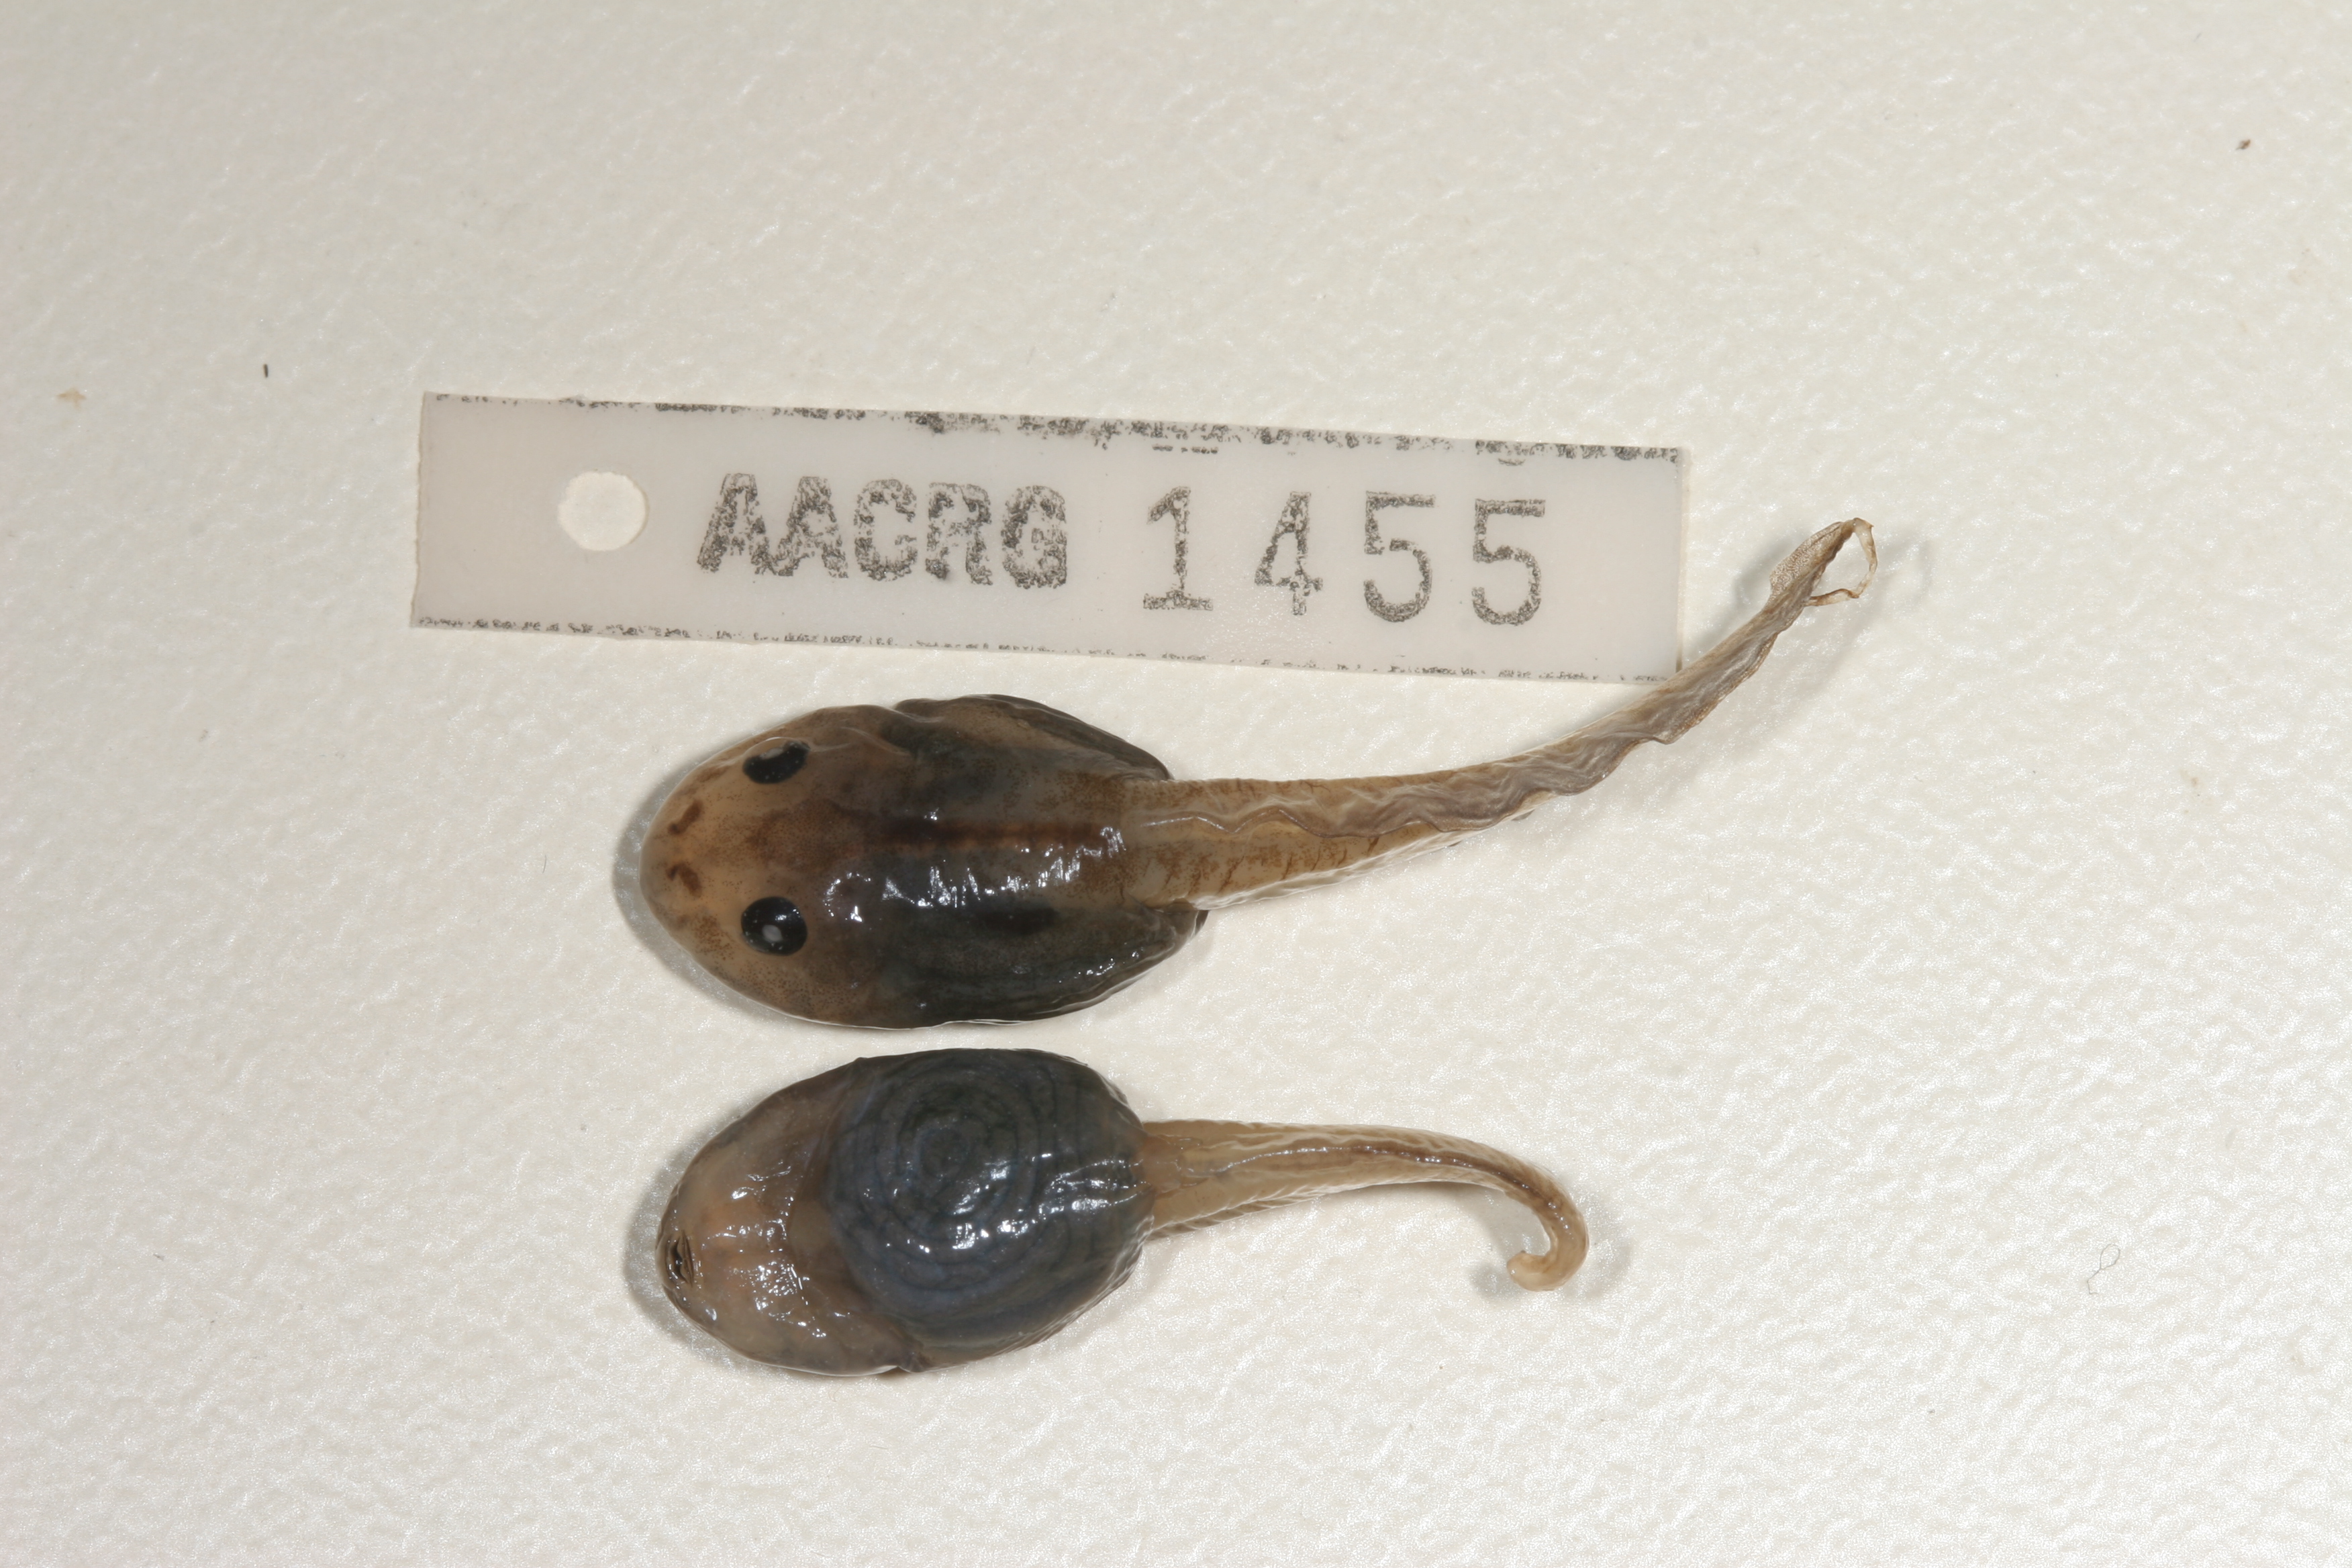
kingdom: Animalia
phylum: Chordata
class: Amphibia
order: Anura
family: Rhacophoridae
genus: Chiromantis
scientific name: Chiromantis xerampelina
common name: African gray treefrog
